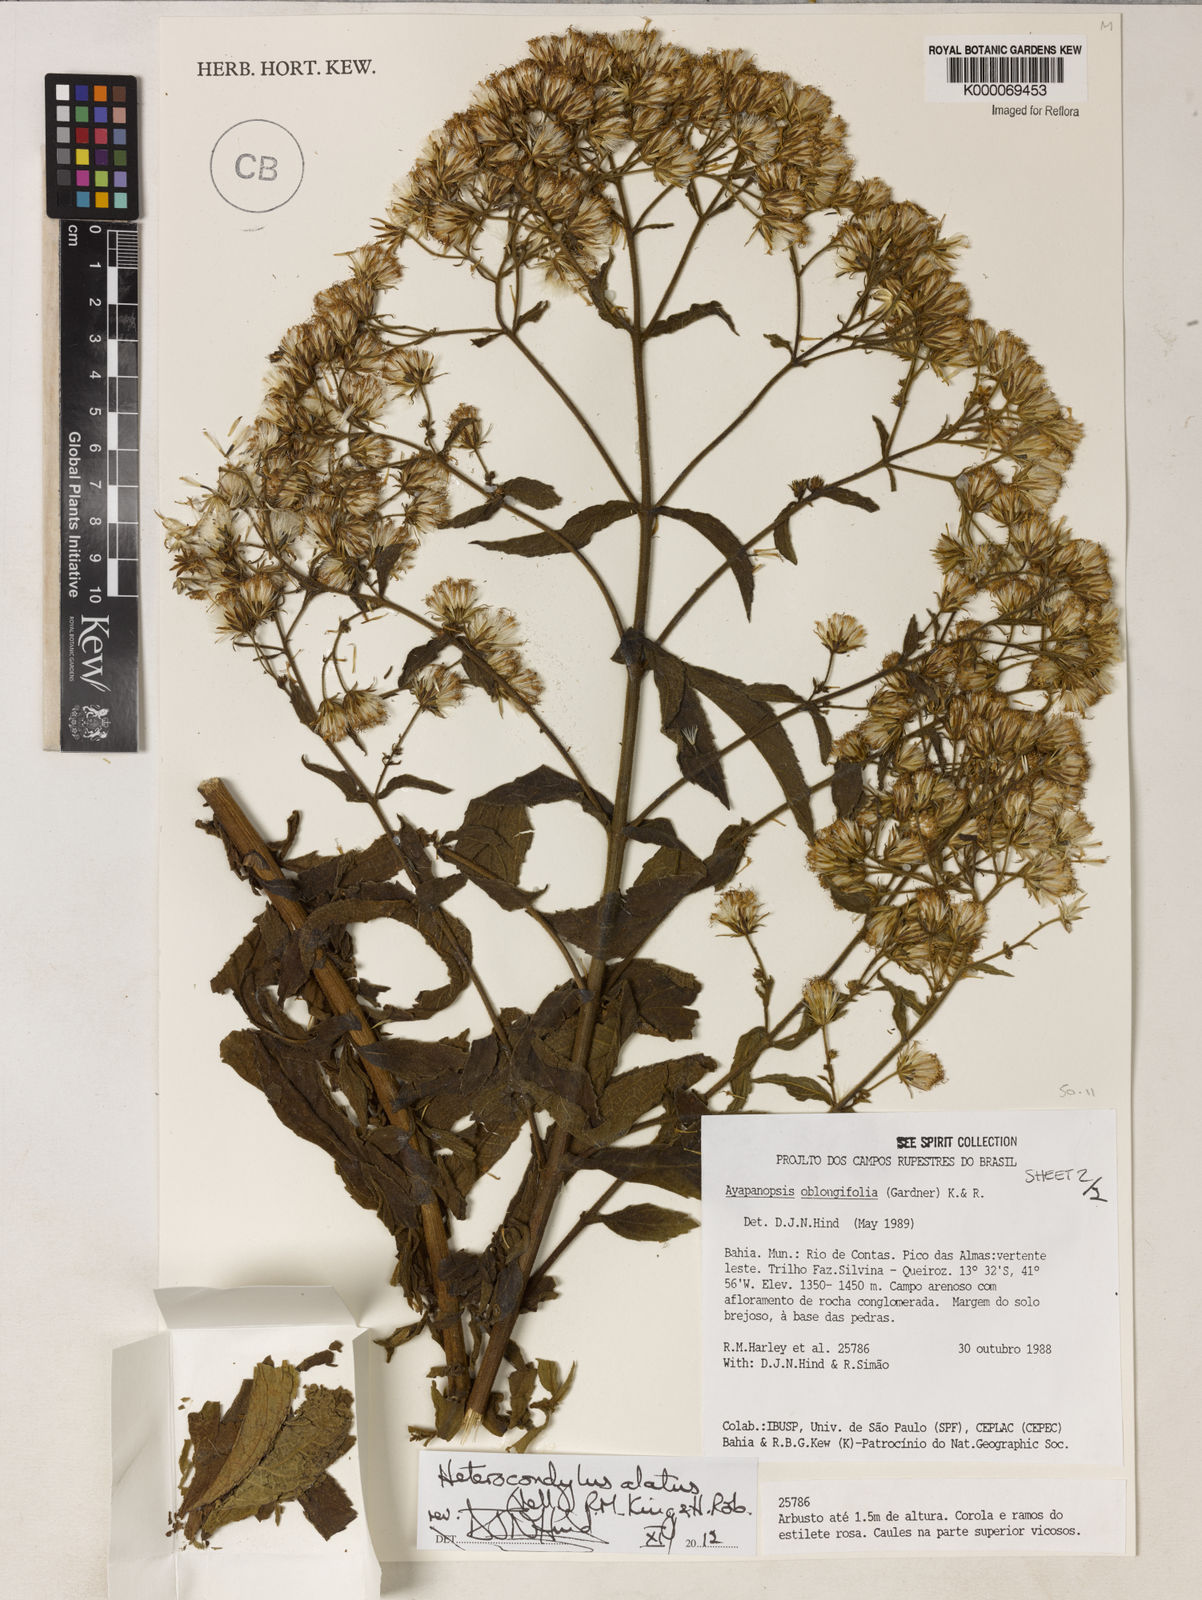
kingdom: Plantae
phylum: Tracheophyta
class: Magnoliopsida
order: Asterales
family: Asteraceae
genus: Ayapanopsis
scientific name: Ayapanopsis oblongifolia
